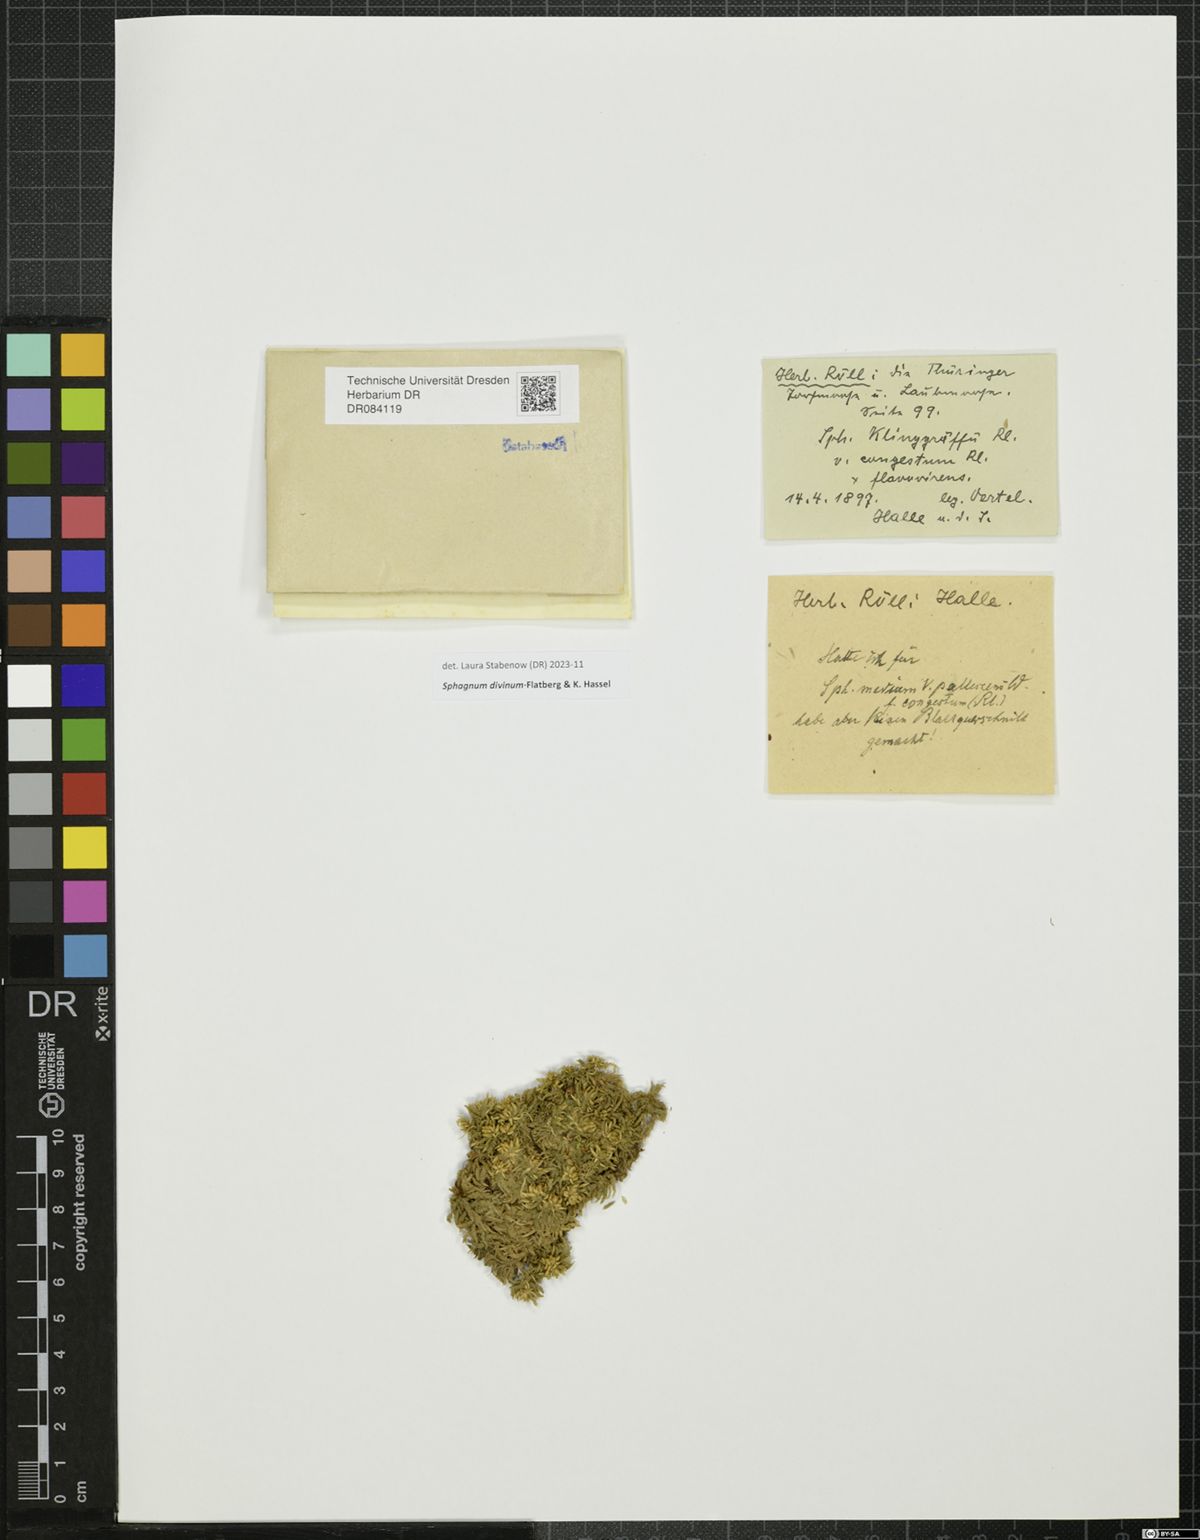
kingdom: Plantae
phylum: Bryophyta
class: Sphagnopsida
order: Sphagnales
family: Sphagnaceae
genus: Sphagnum
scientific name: Sphagnum divinum
